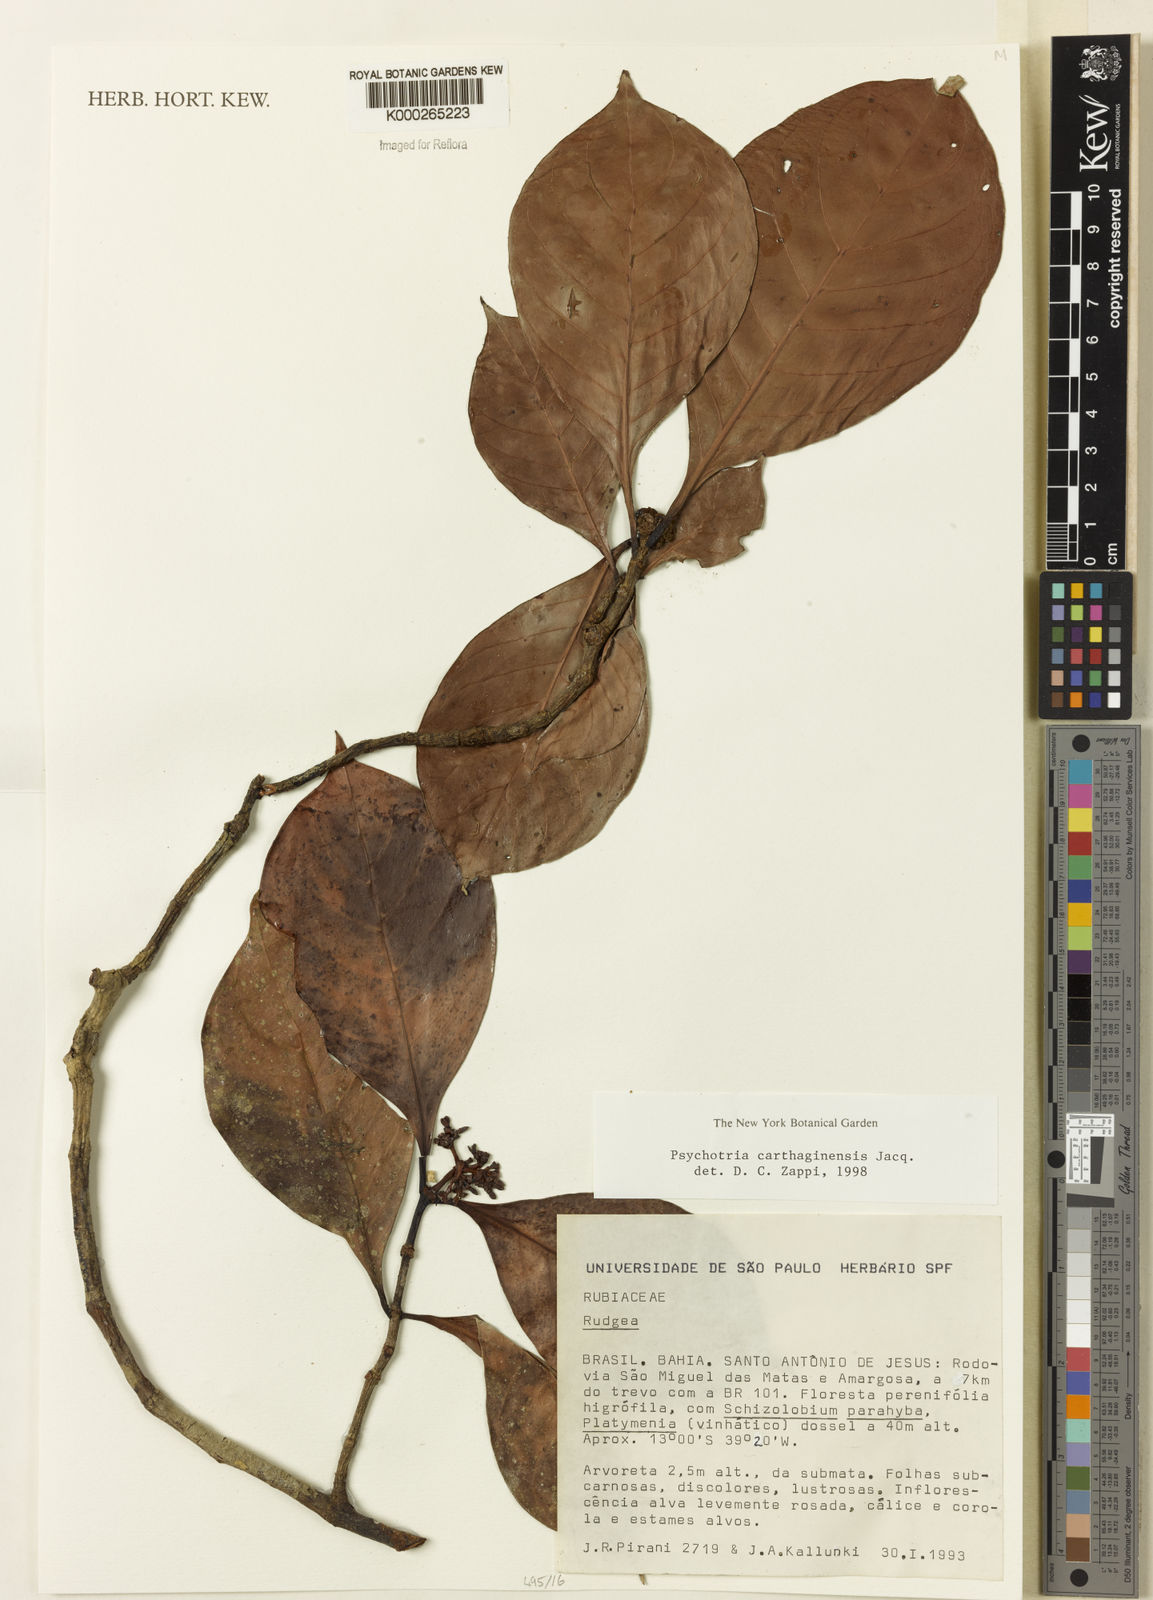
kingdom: Plantae
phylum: Tracheophyta
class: Magnoliopsida
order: Gentianales
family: Rubiaceae
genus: Psychotria
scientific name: Psychotria carthagenensis
